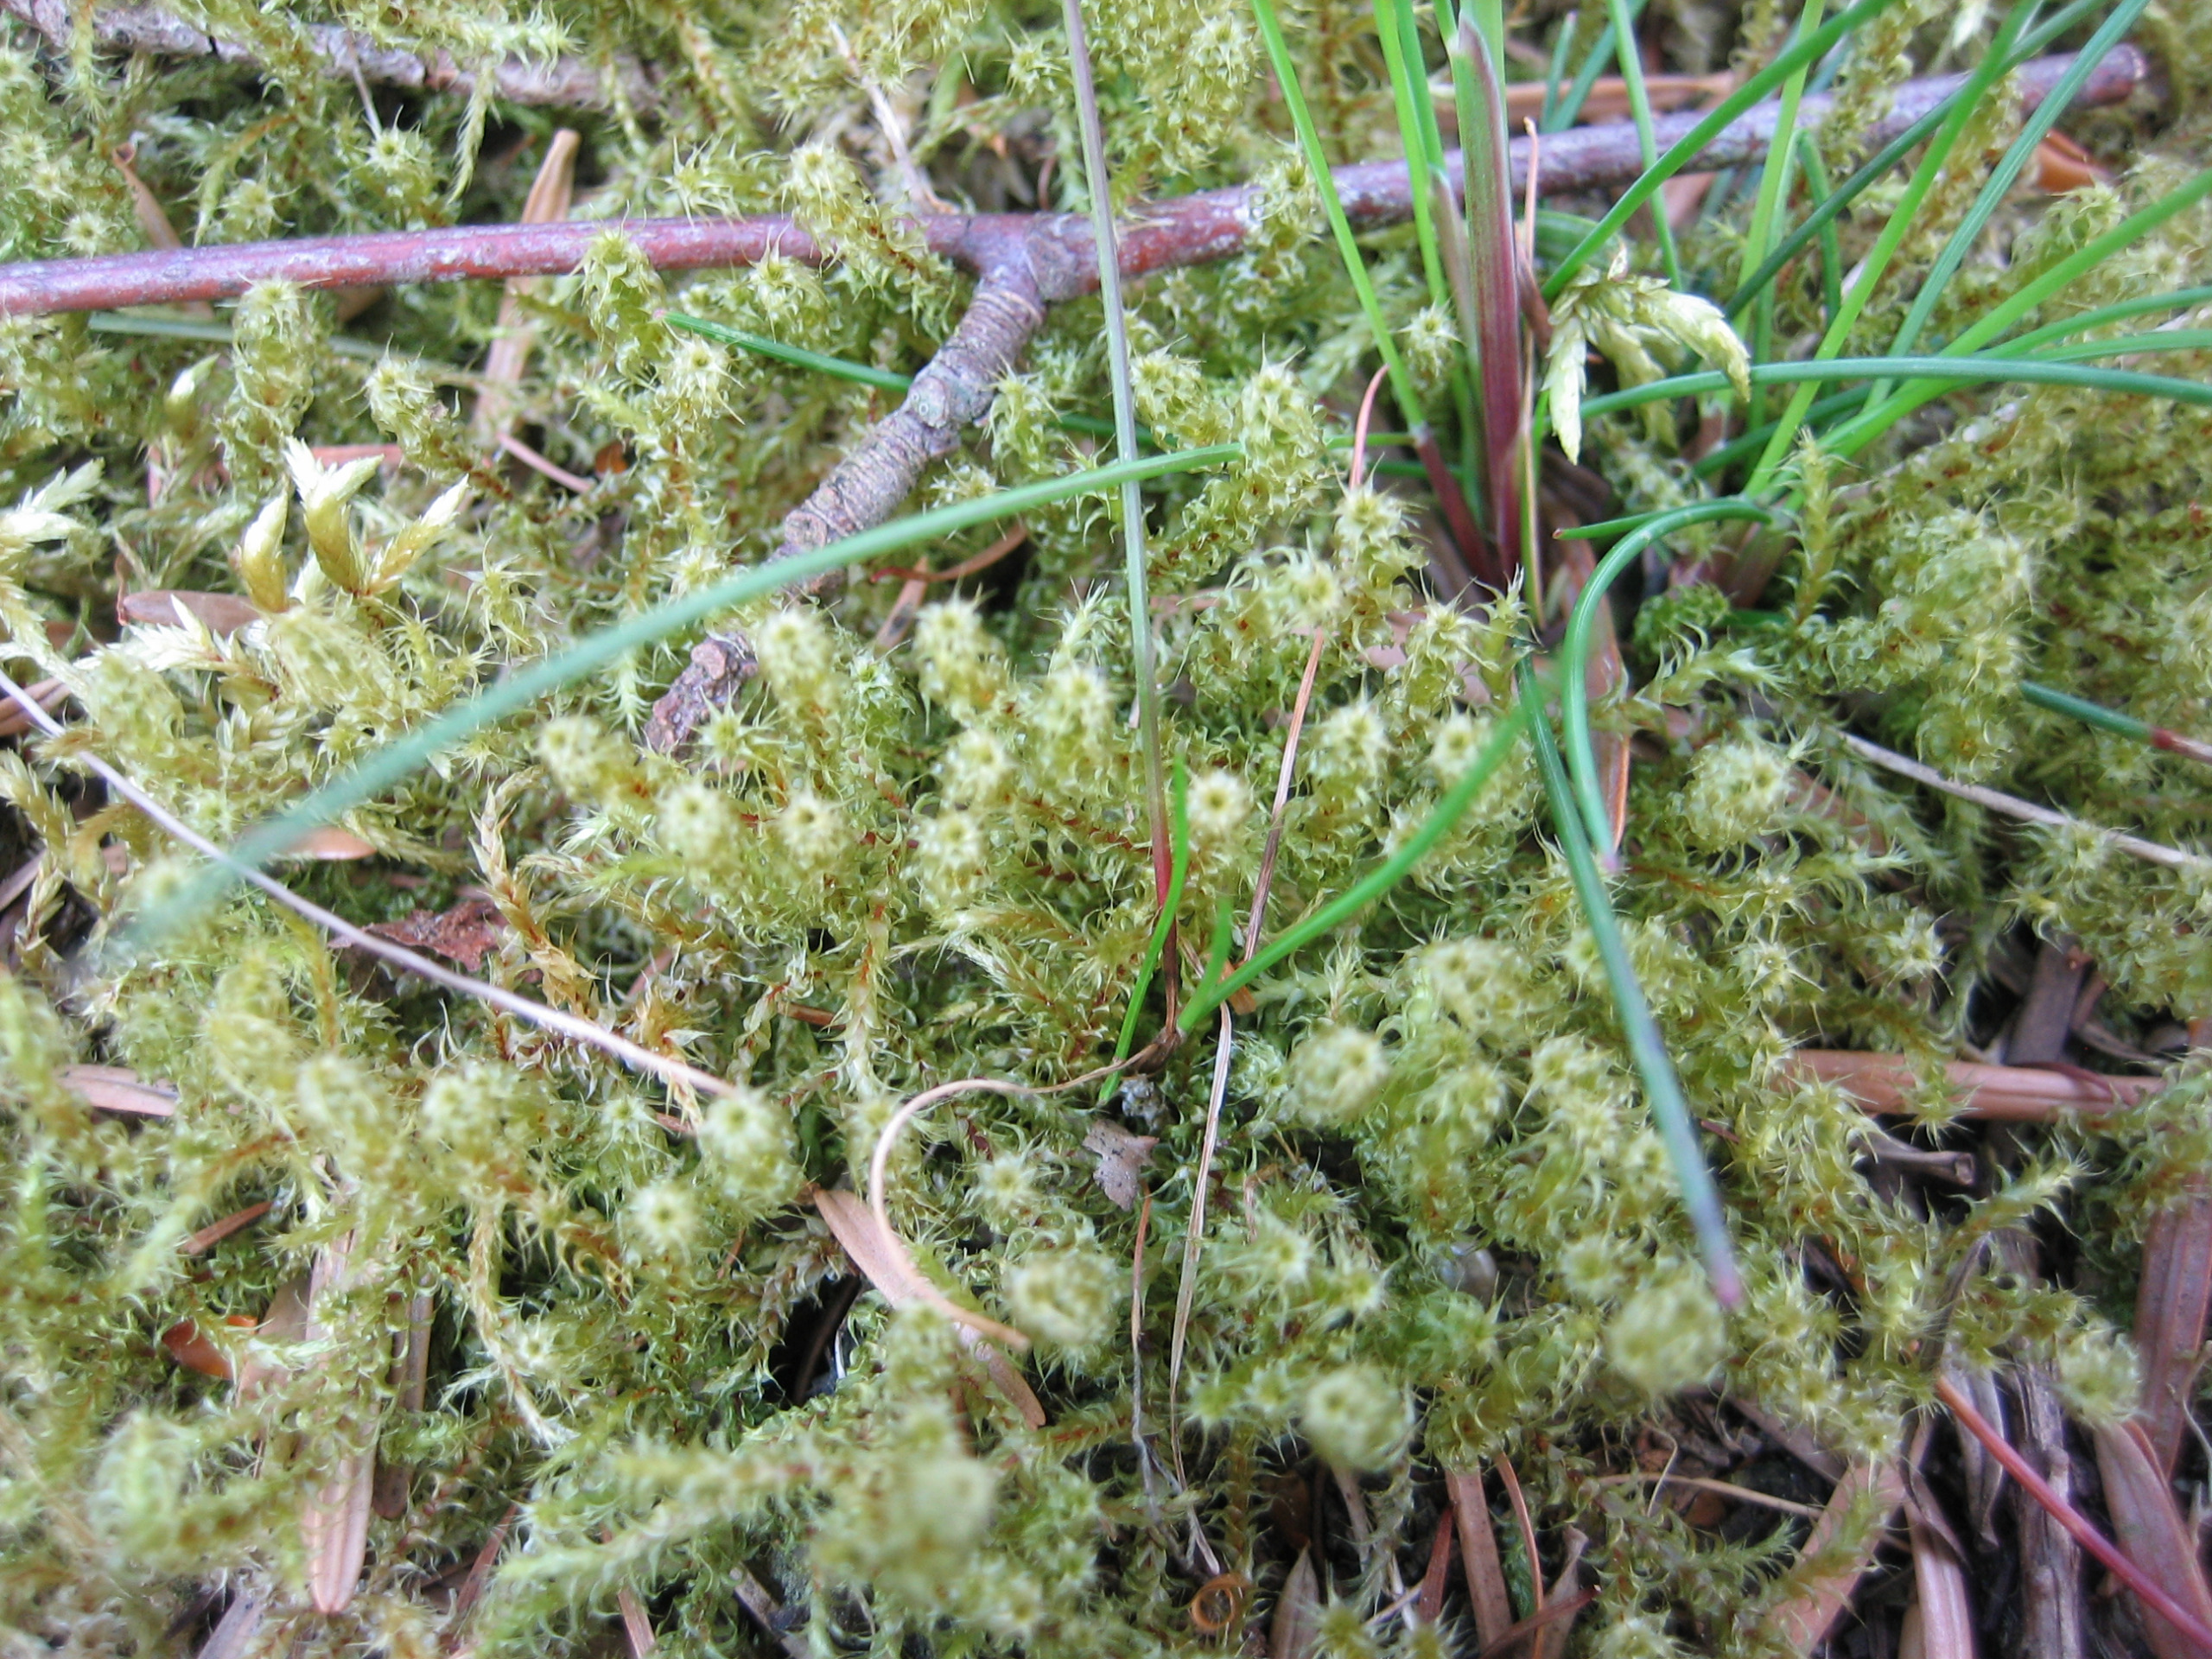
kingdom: Plantae
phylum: Bryophyta
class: Bryopsida
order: Hypnales
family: Hylocomiaceae
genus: Rhytidiadelphus
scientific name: Rhytidiadelphus squarrosus
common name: Plæne-kransemos
